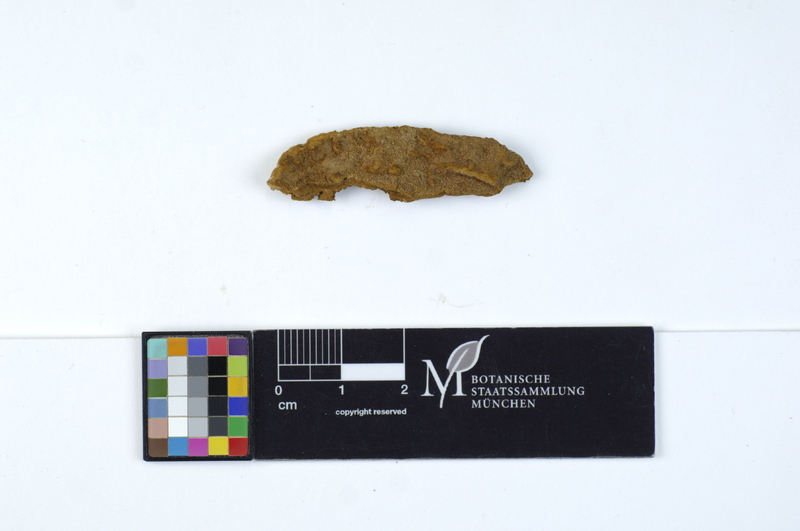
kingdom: Fungi
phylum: Basidiomycota
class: Agaricomycetes
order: Hymenochaetales
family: Hymenochaetaceae
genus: Fuscoporia
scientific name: Fuscoporia torulosa
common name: Tufted bracket
